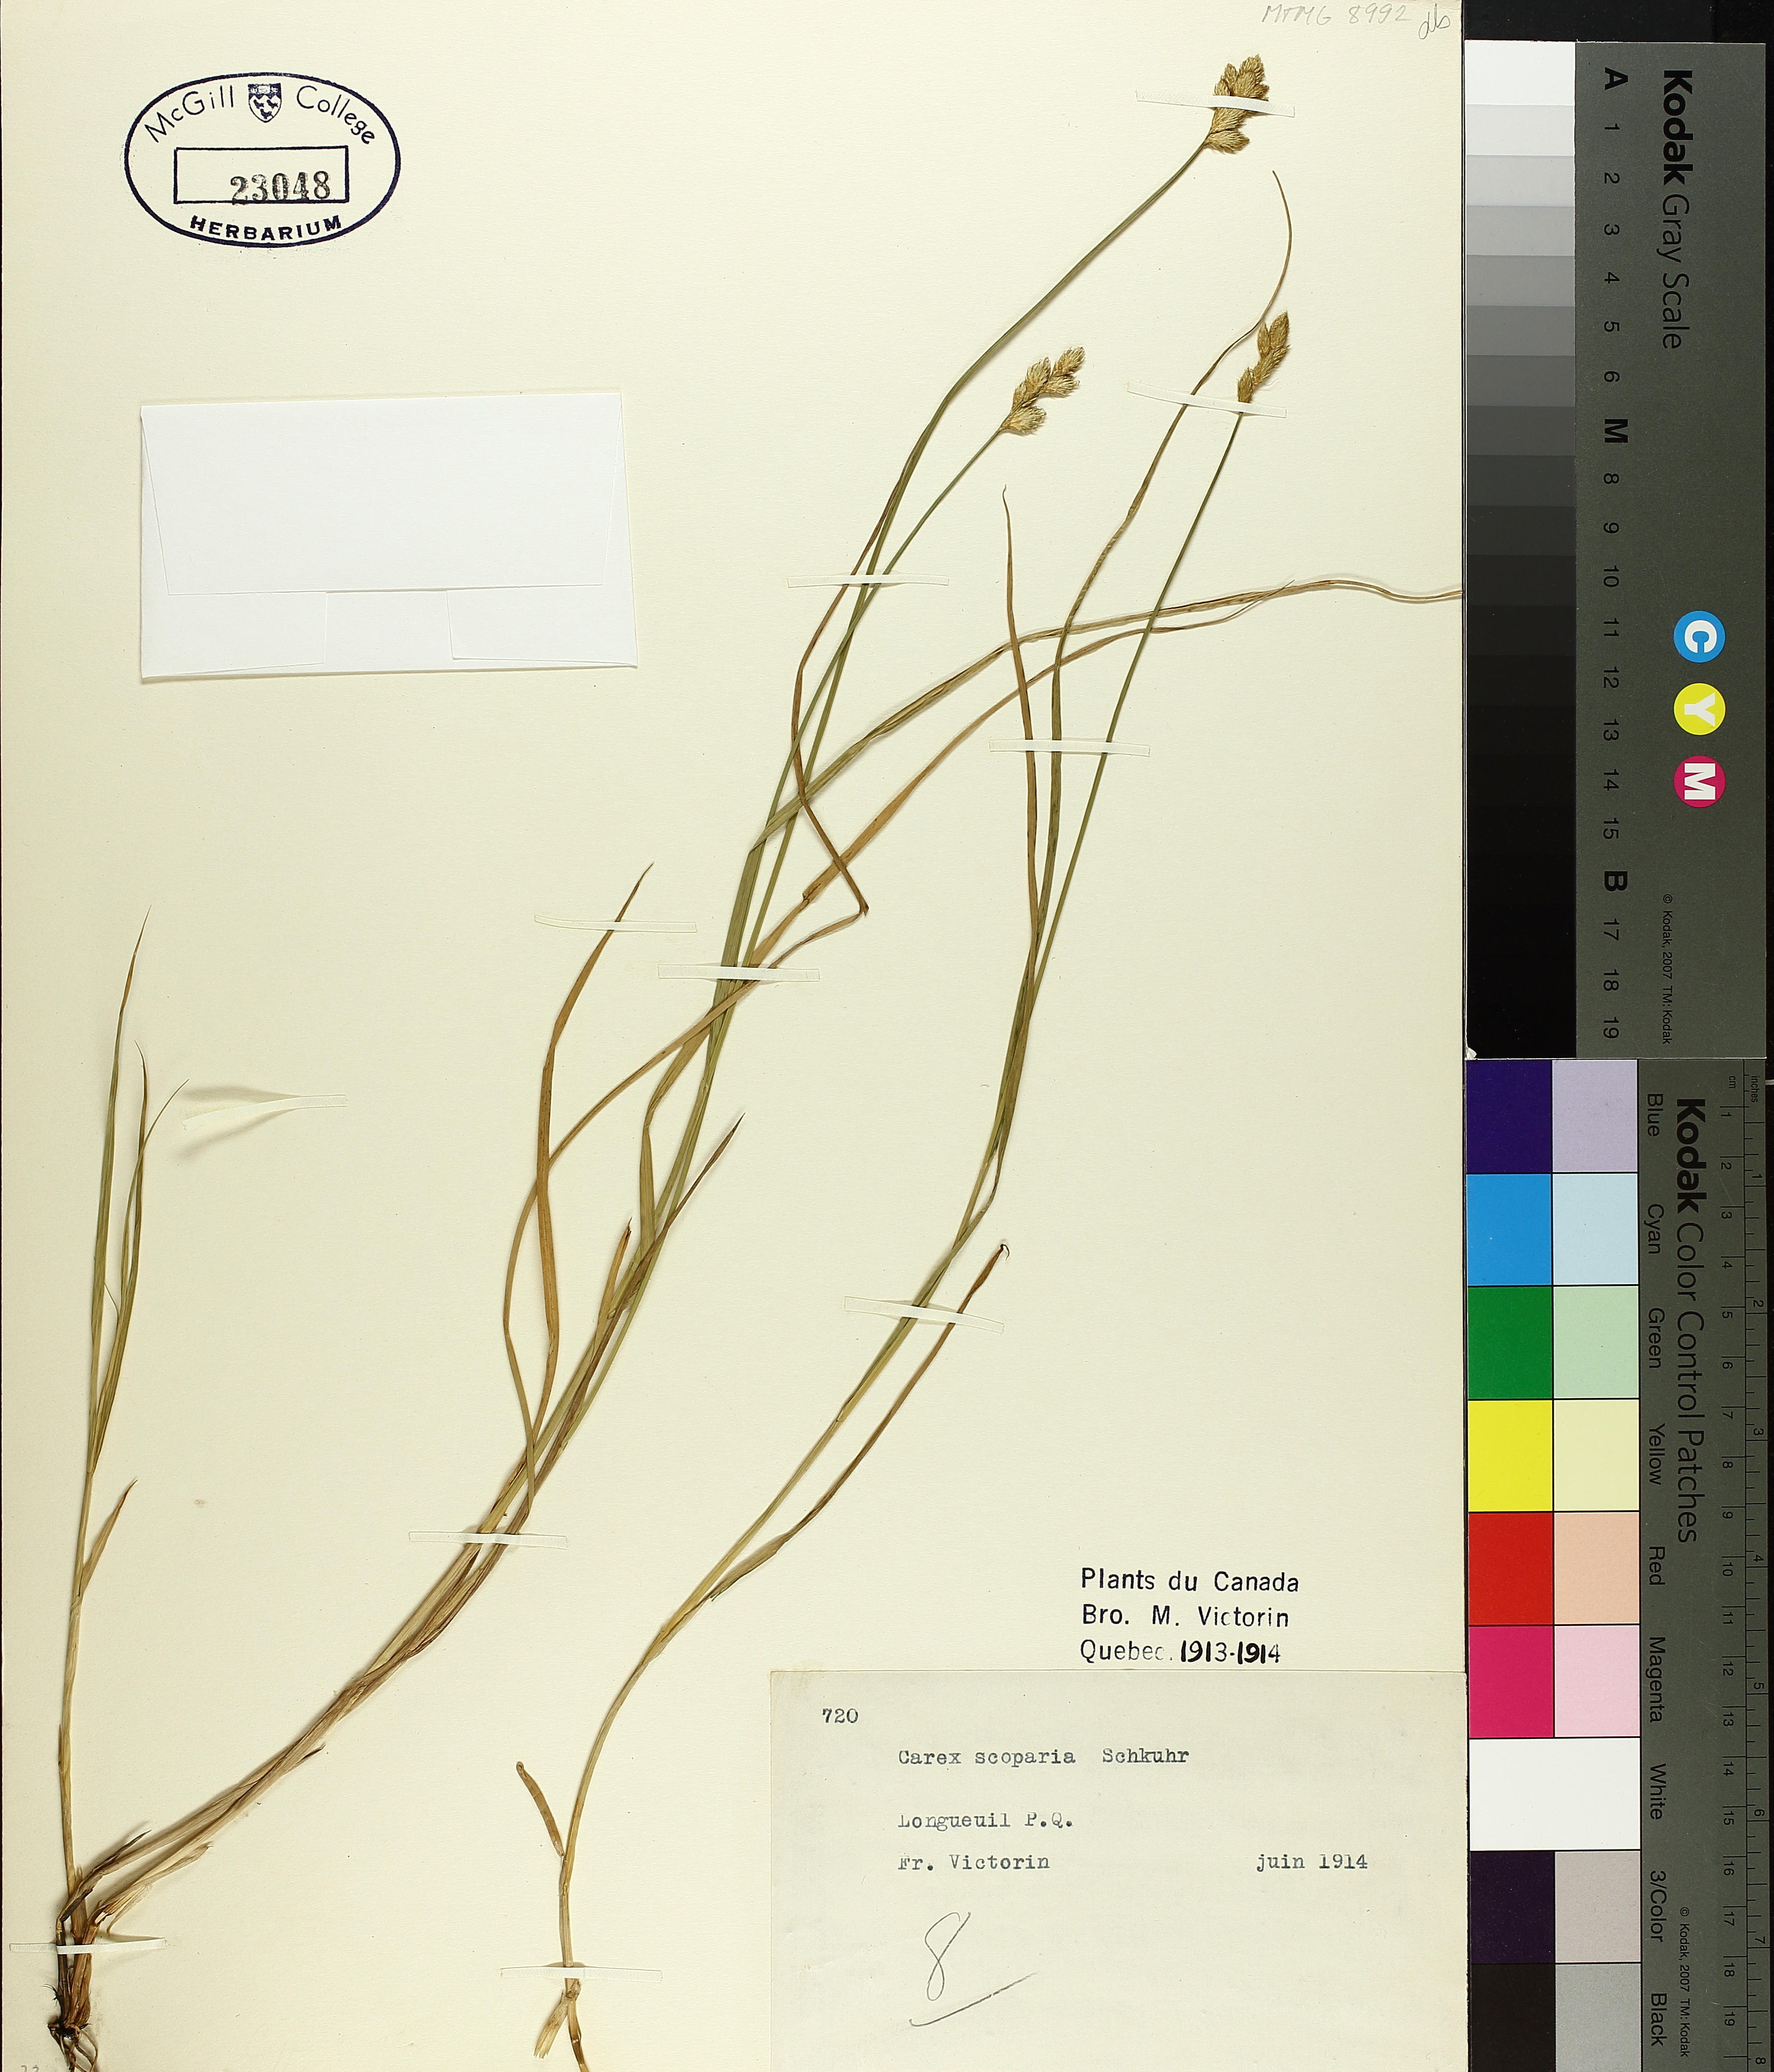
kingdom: Plantae
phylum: Tracheophyta
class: Liliopsida
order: Poales
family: Cyperaceae
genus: Carex
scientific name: Carex scoparia
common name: Broom sedge
